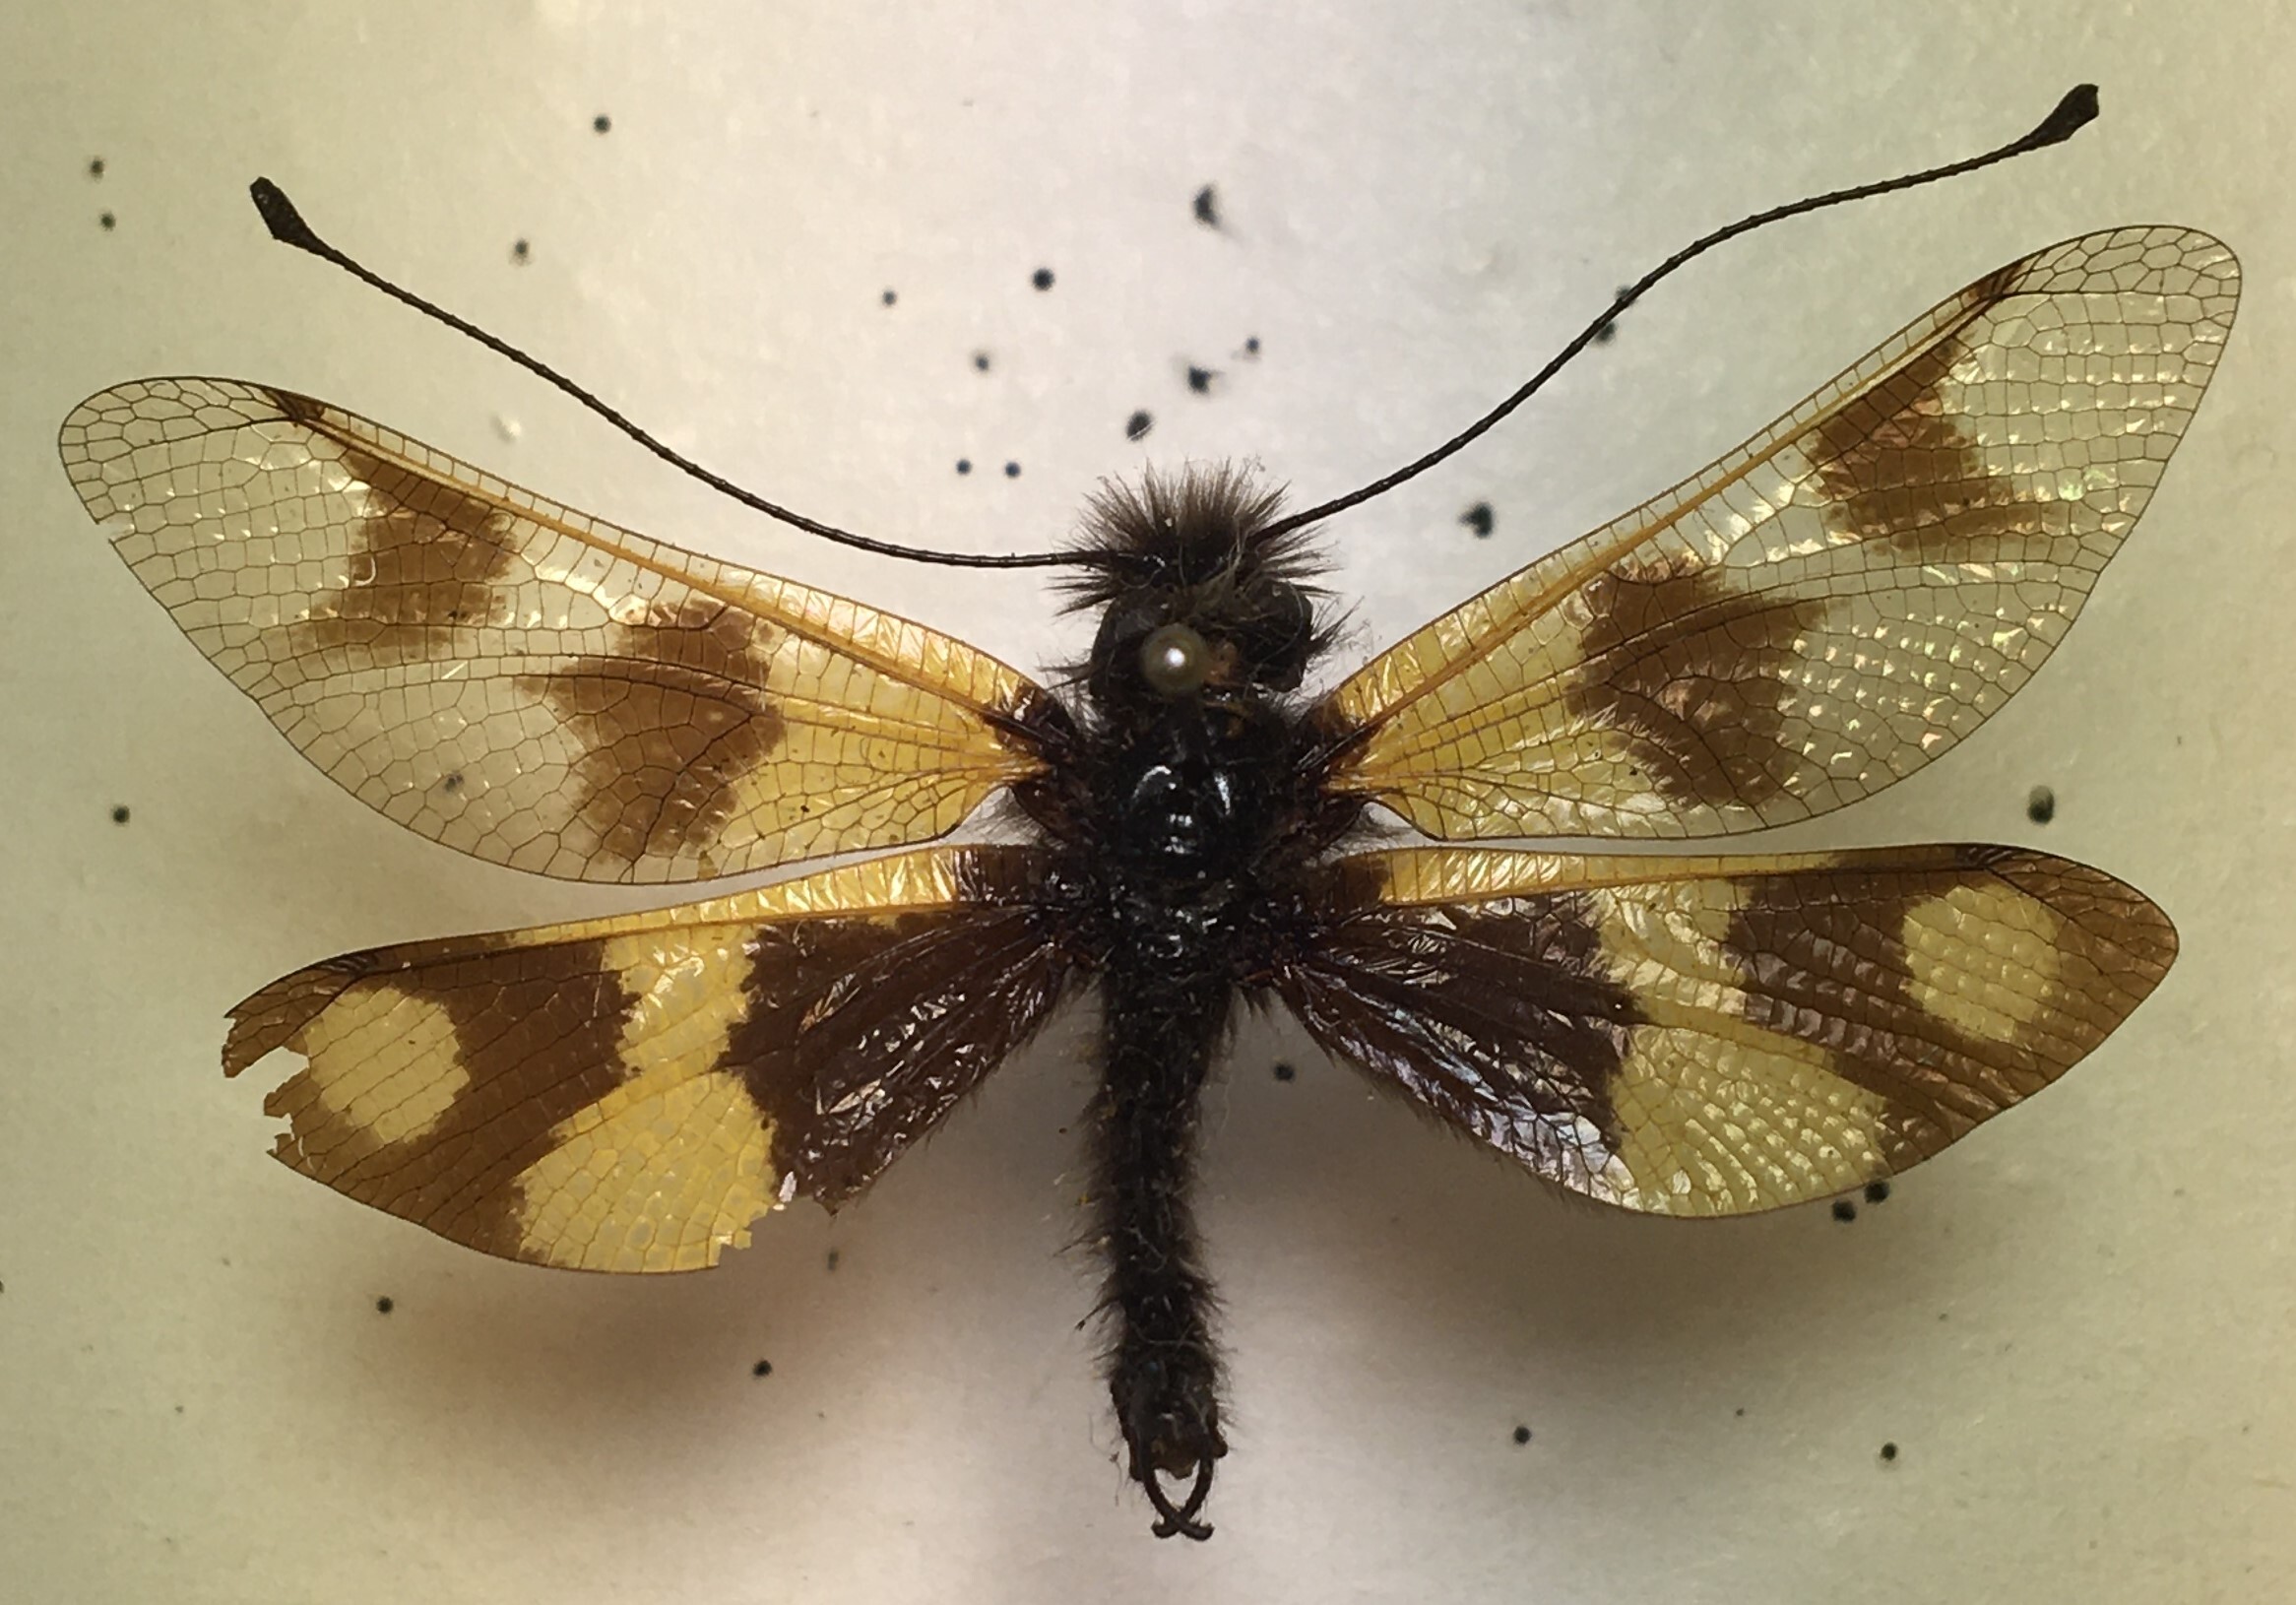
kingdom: Animalia
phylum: Arthropoda
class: Insecta
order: Neuroptera
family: Ascalaphidae
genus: Libelloides
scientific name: Libelloides macaronius
